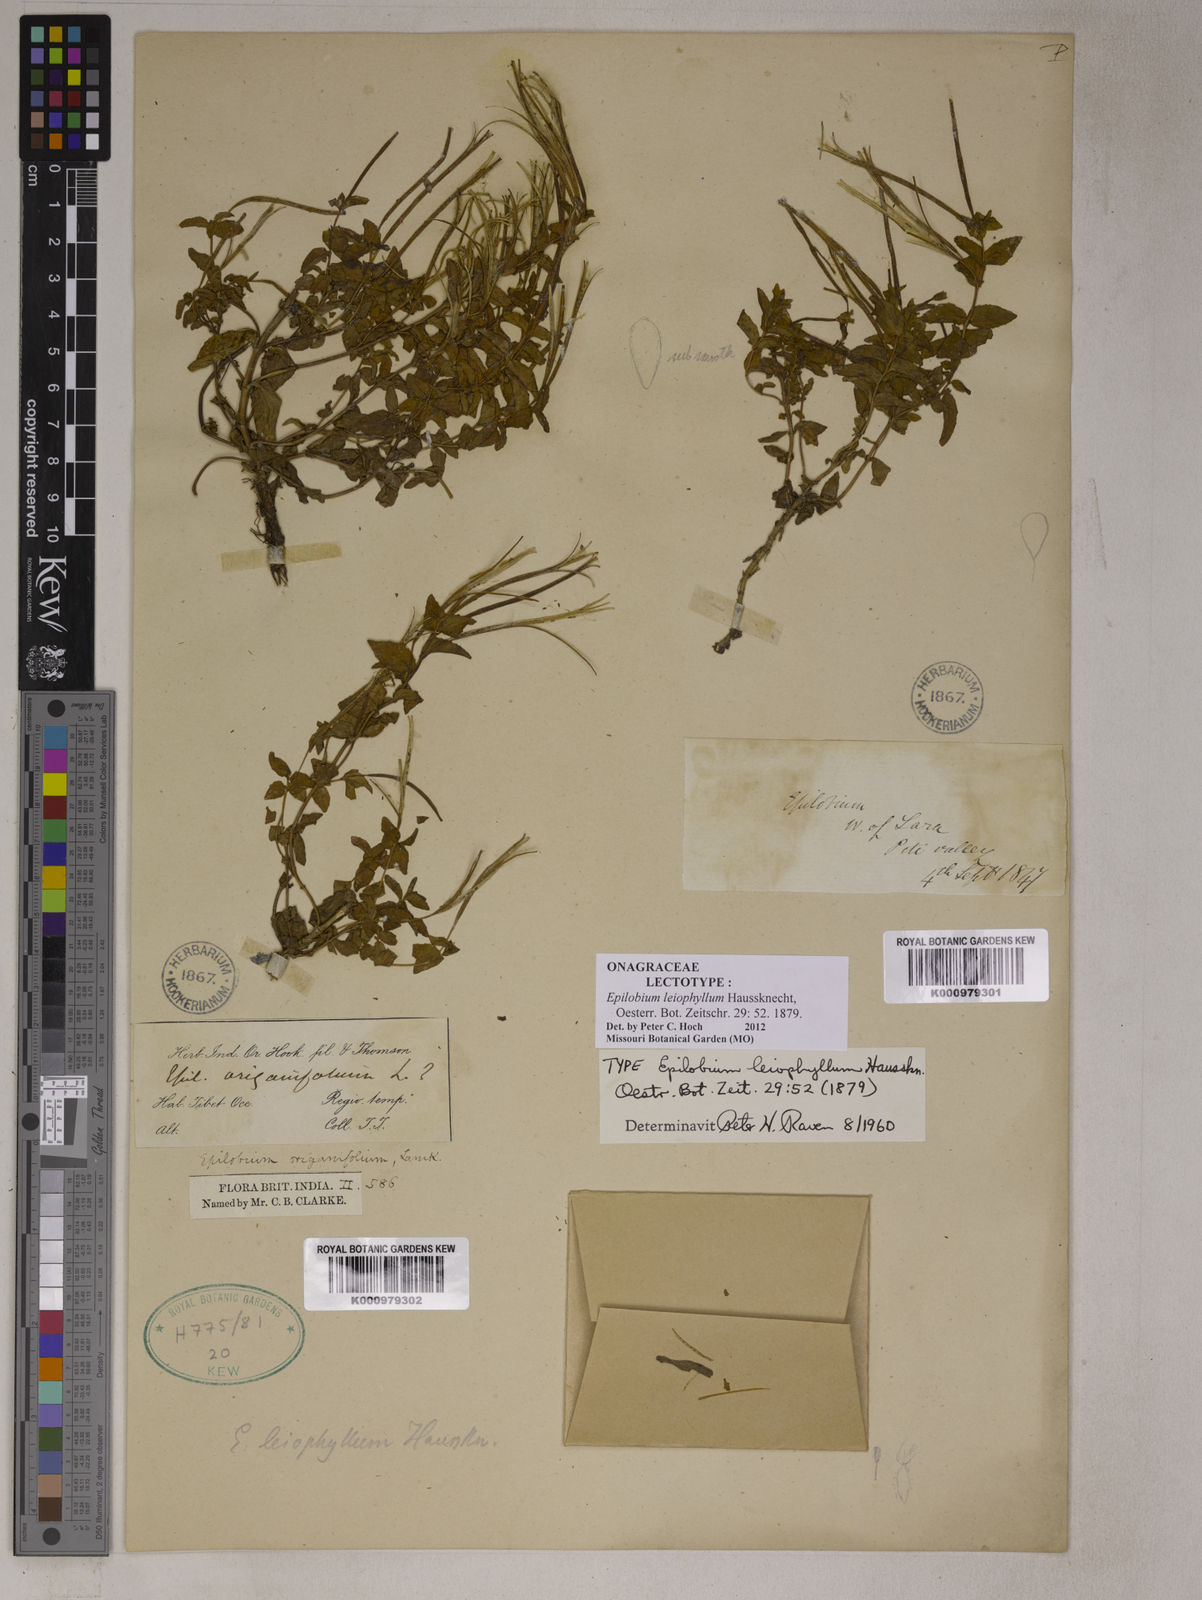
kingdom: Plantae
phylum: Tracheophyta
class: Magnoliopsida
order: Myrtales
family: Onagraceae
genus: Epilobium
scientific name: Epilobium leiophyllum
